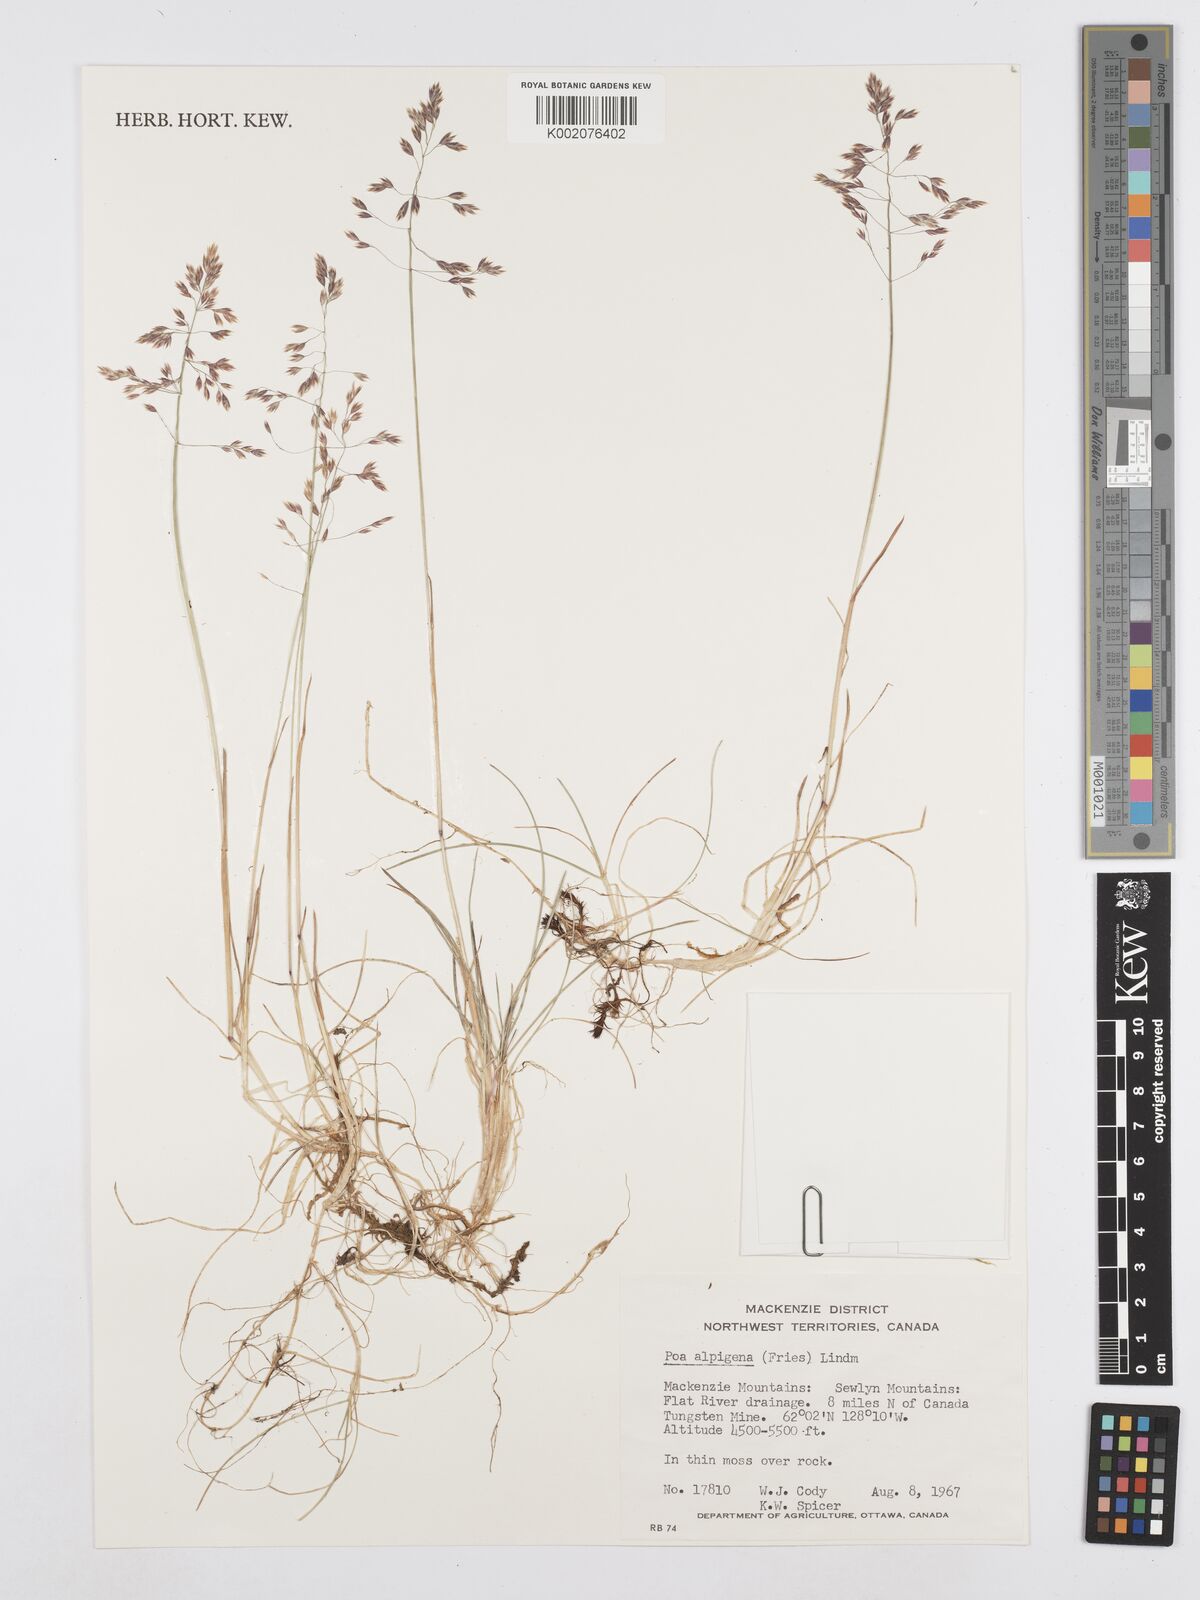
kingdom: Plantae
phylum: Tracheophyta
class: Liliopsida
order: Poales
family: Poaceae
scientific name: Poaceae
